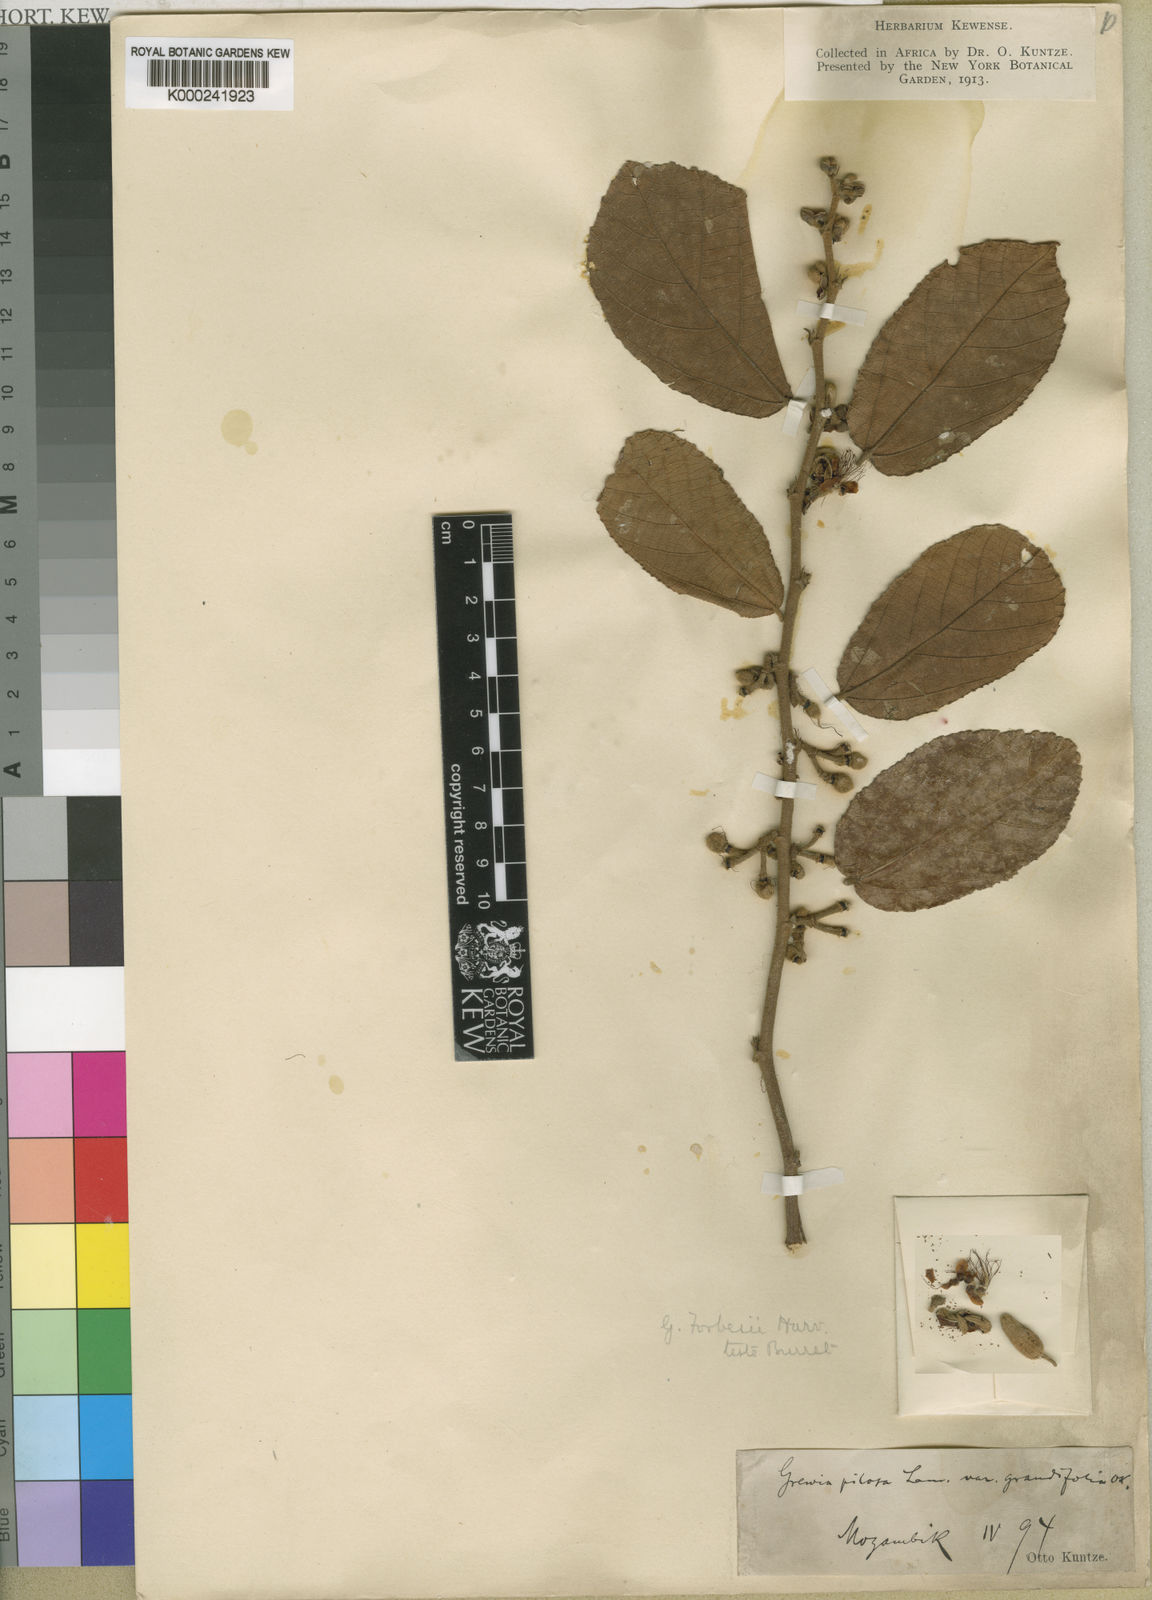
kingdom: Plantae
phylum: Tracheophyta
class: Magnoliopsida
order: Malvales
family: Malvaceae
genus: Grewia
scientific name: Grewia forbesii
